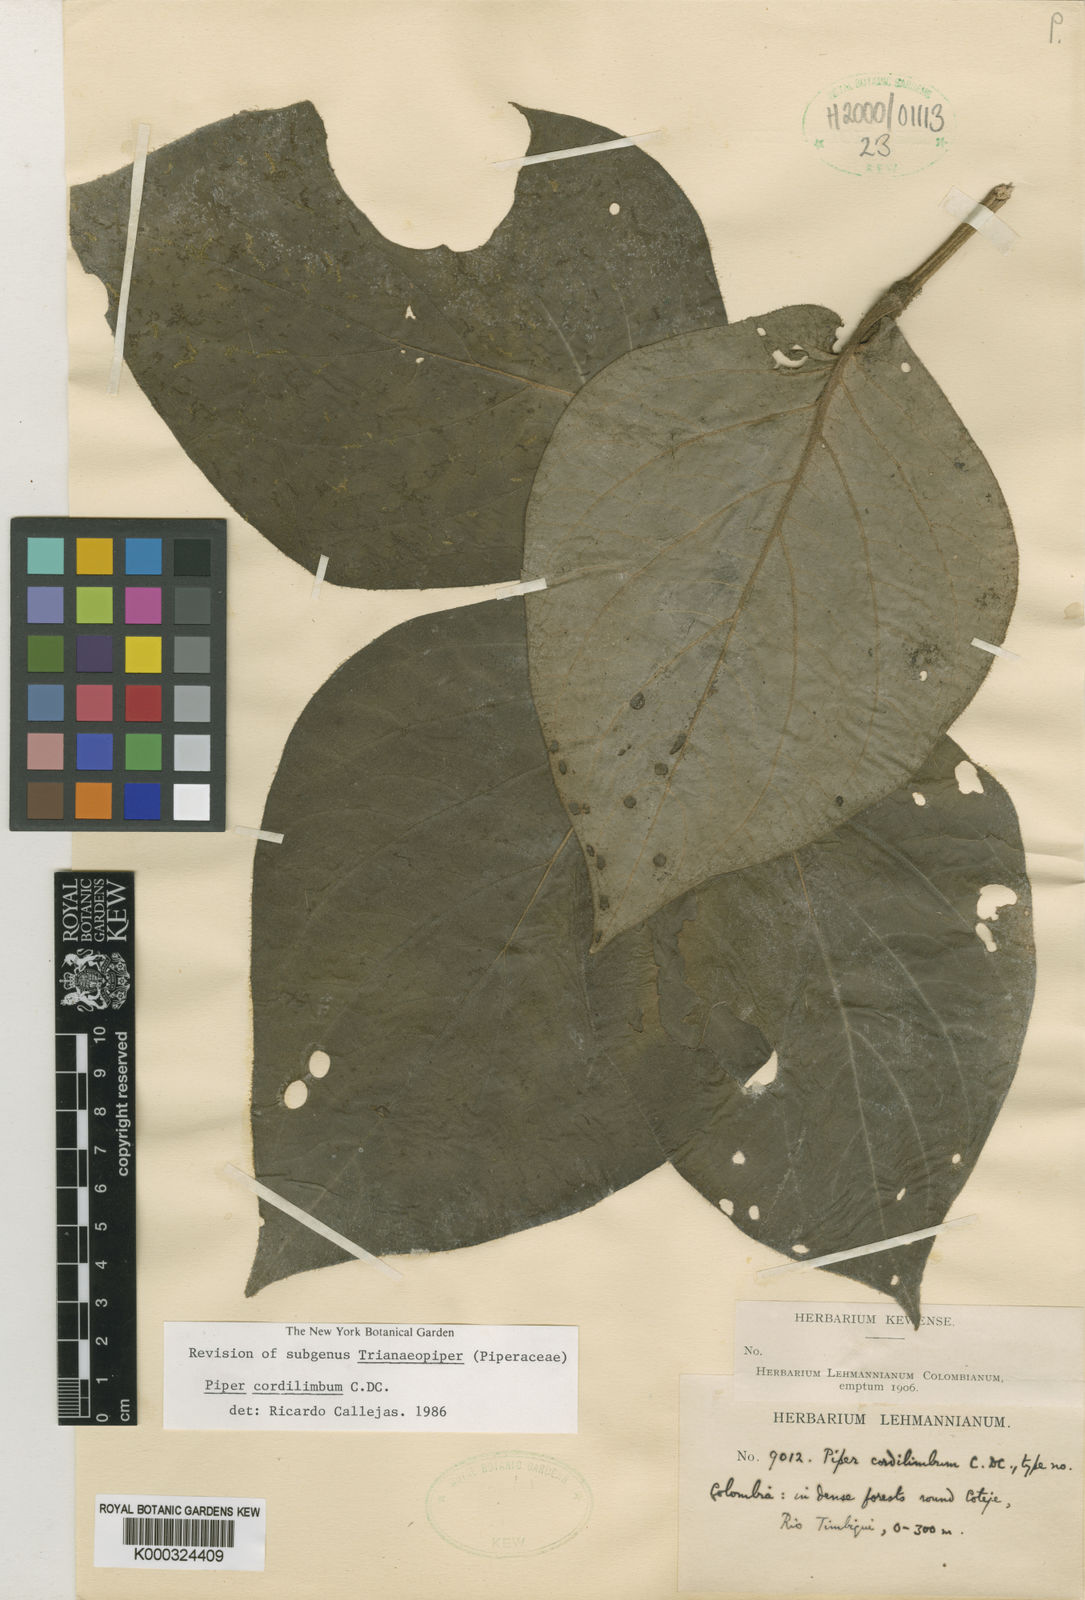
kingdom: Plantae
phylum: Tracheophyta
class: Magnoliopsida
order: Piperales
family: Piperaceae
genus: Piper
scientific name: Piper cordilimbum
